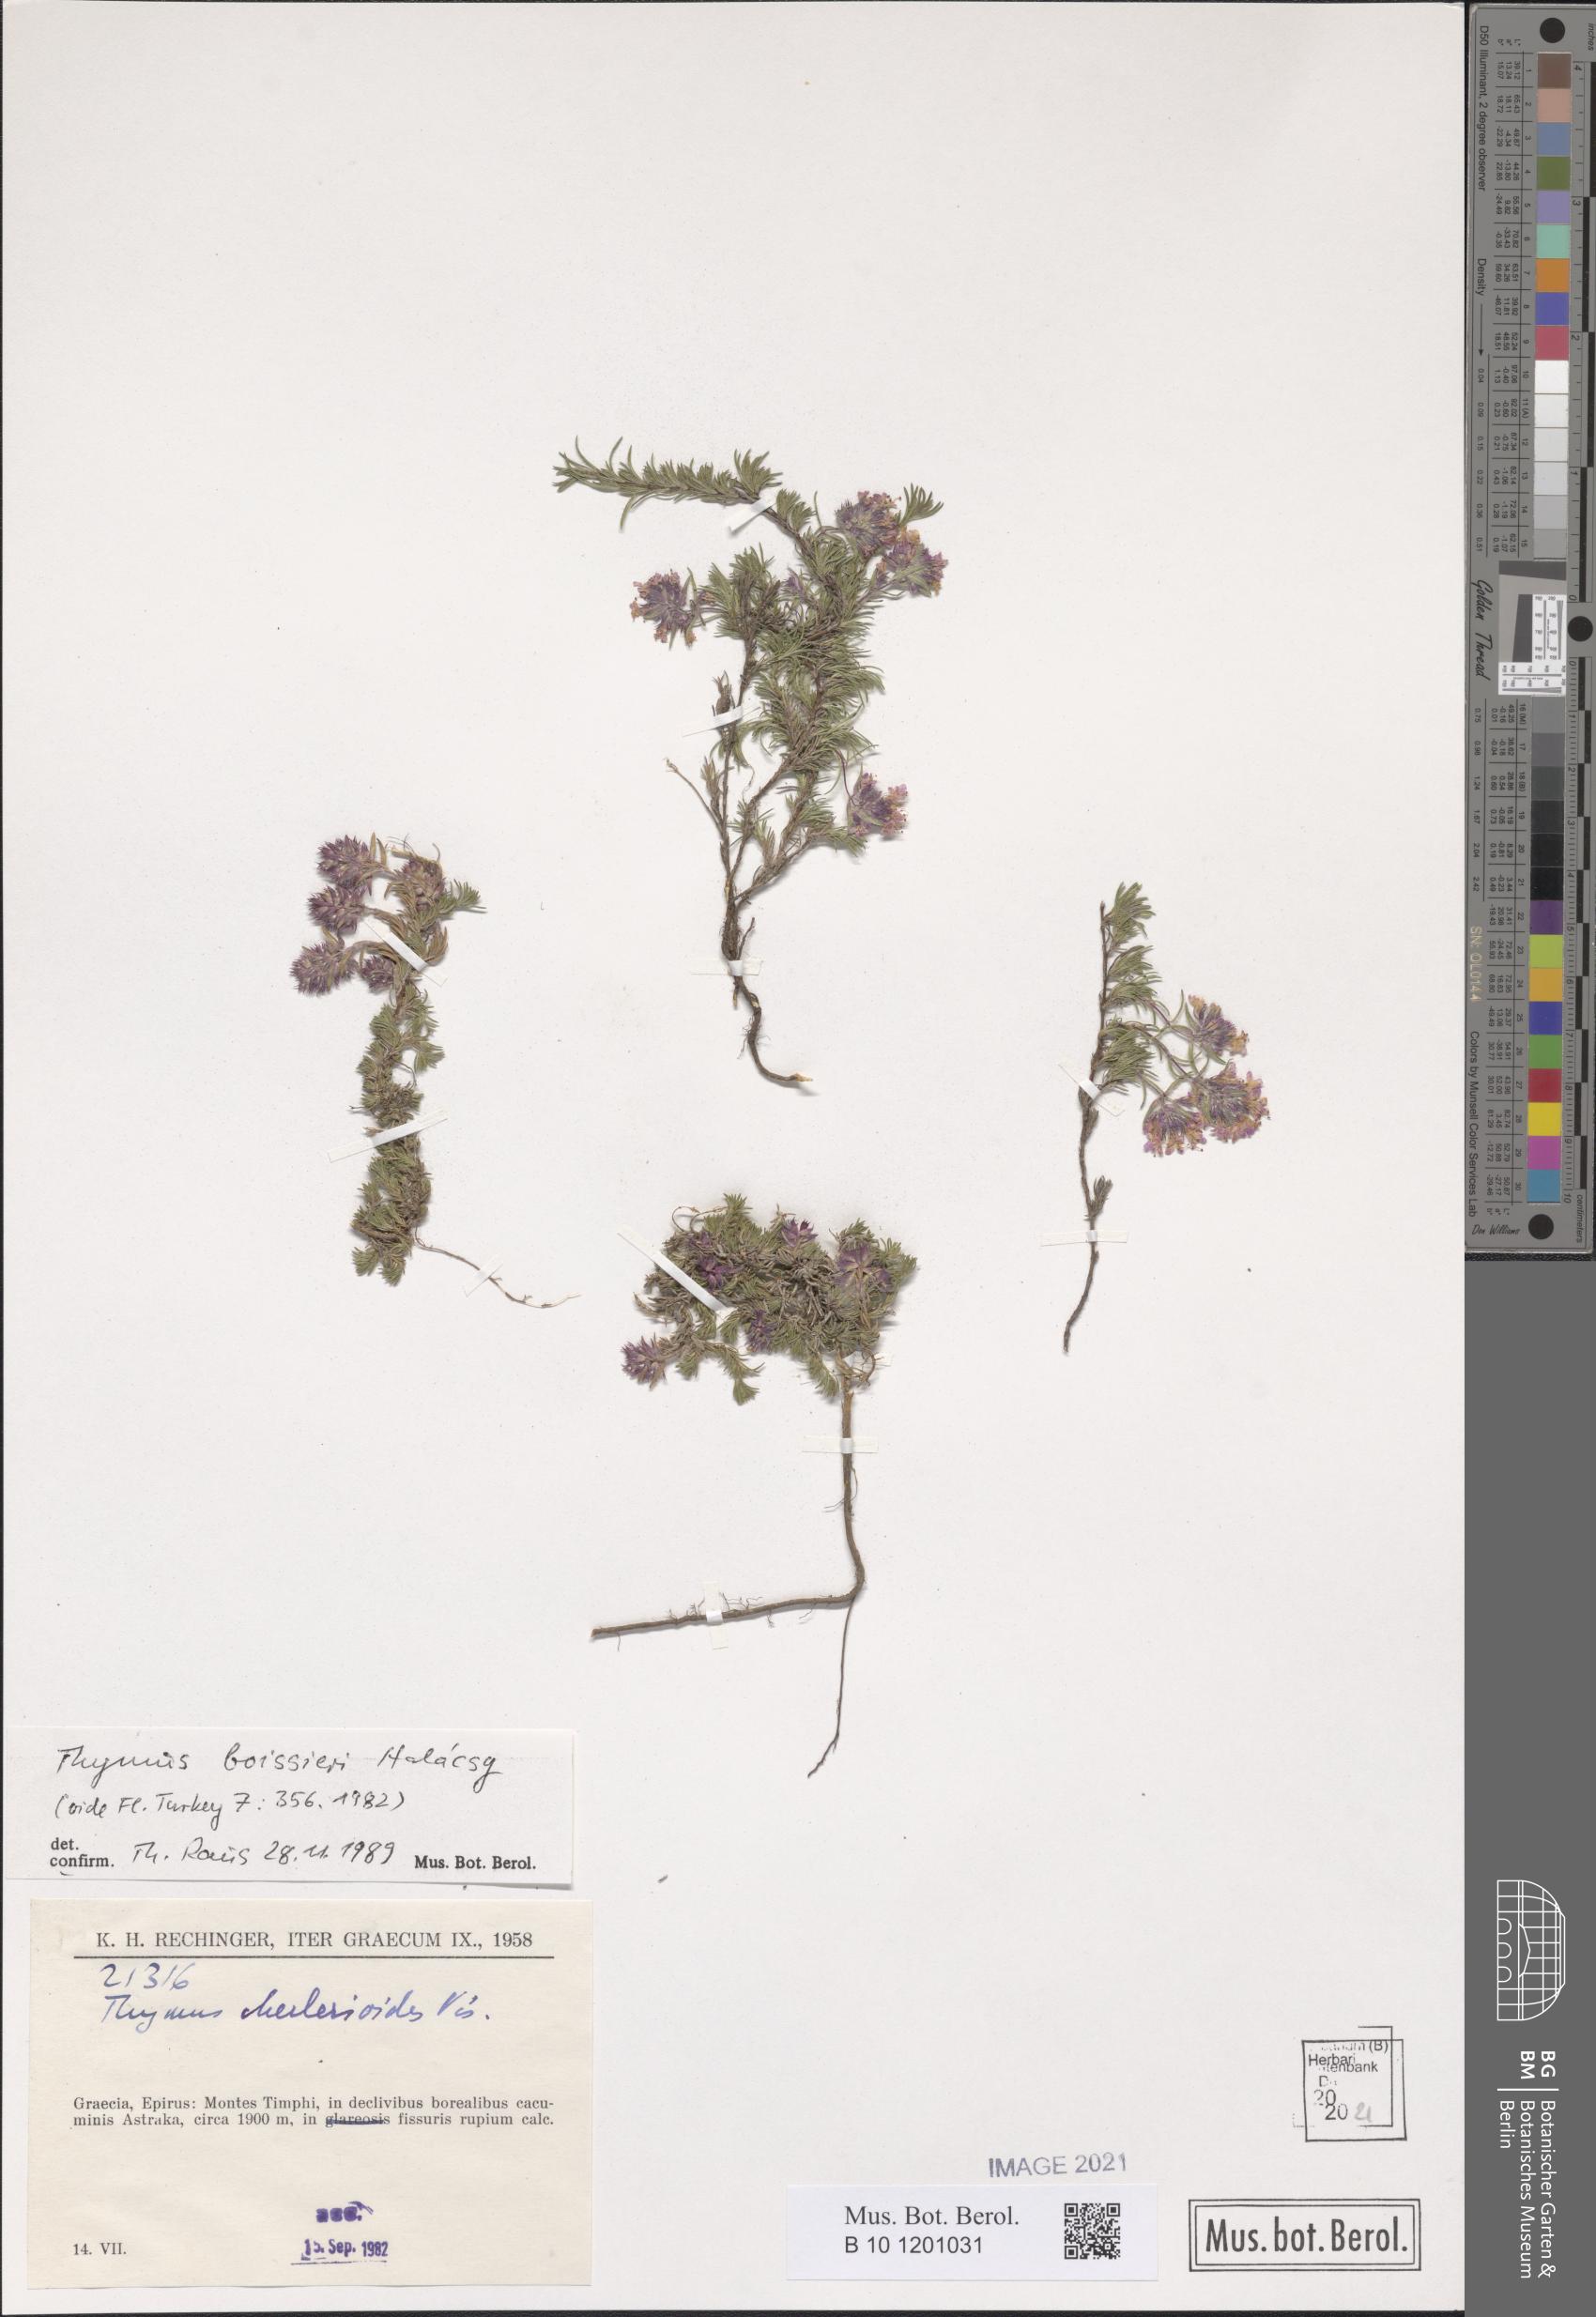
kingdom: Plantae
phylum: Tracheophyta
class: Magnoliopsida
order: Lamiales
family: Lamiaceae
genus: Thymus
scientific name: Thymus boissieri
